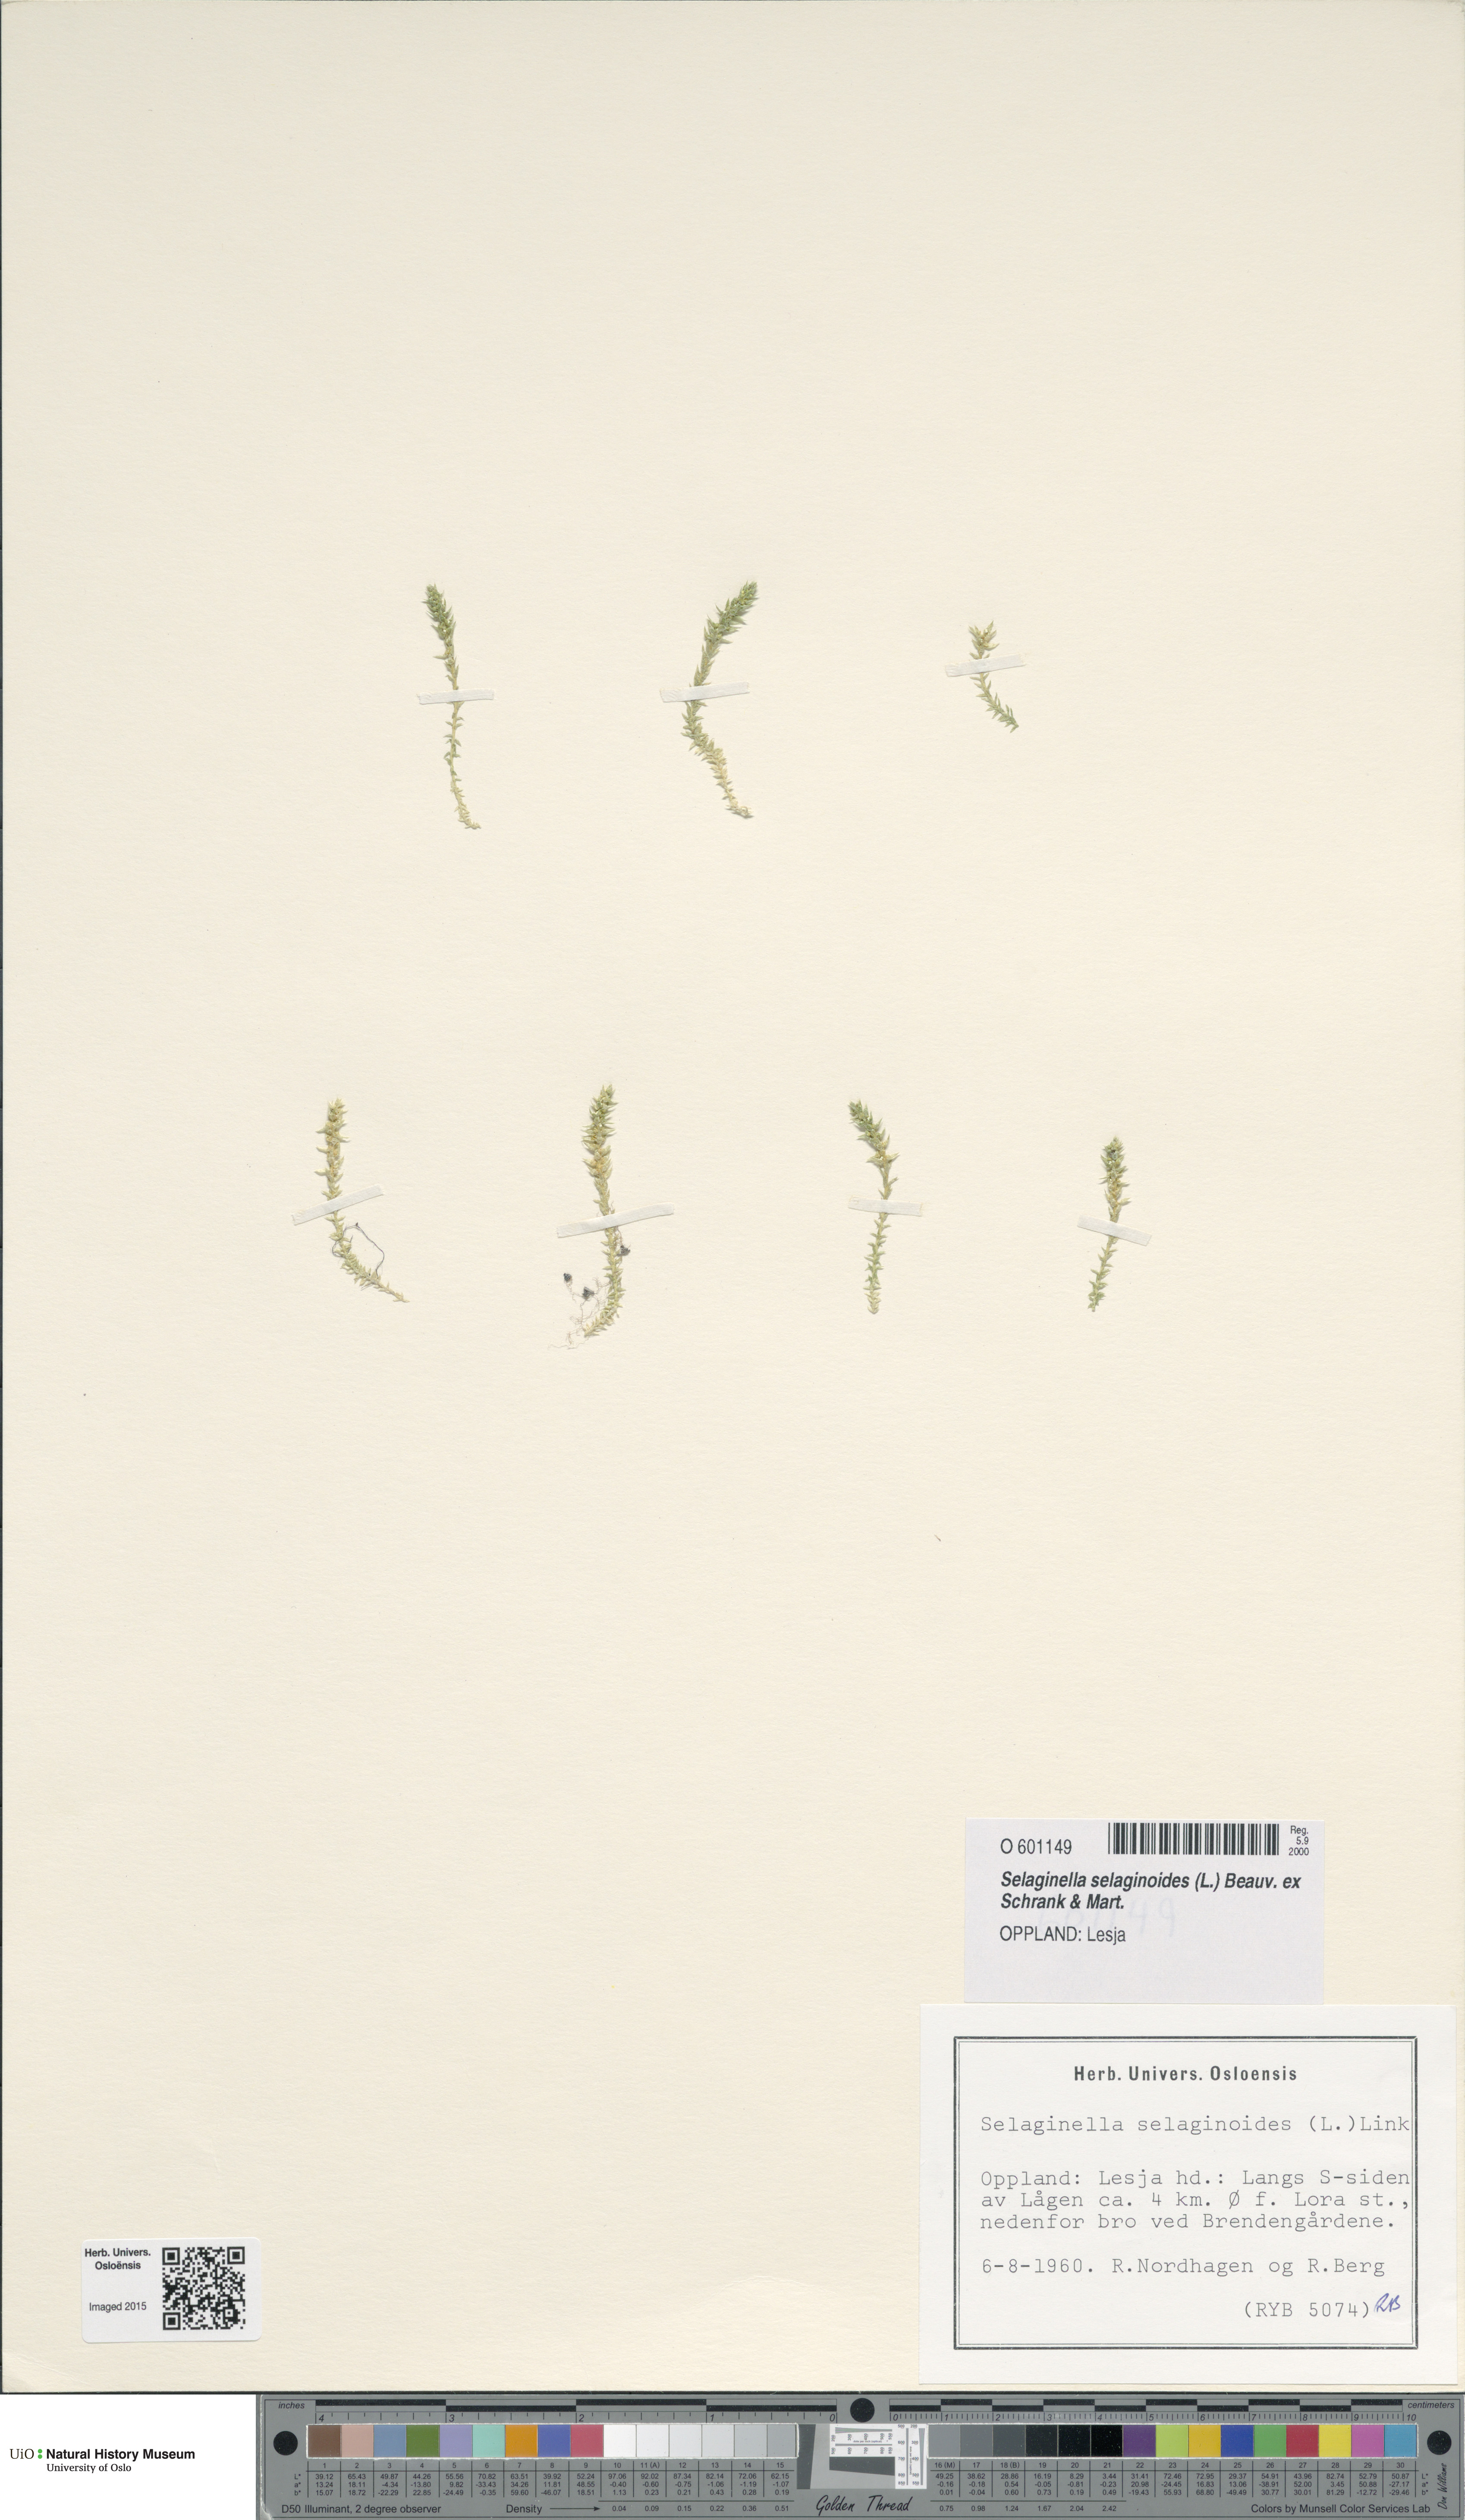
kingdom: Plantae
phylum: Tracheophyta
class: Lycopodiopsida
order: Selaginellales
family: Selaginellaceae
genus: Selaginella
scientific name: Selaginella selaginoides
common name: Prickly mountain-moss
